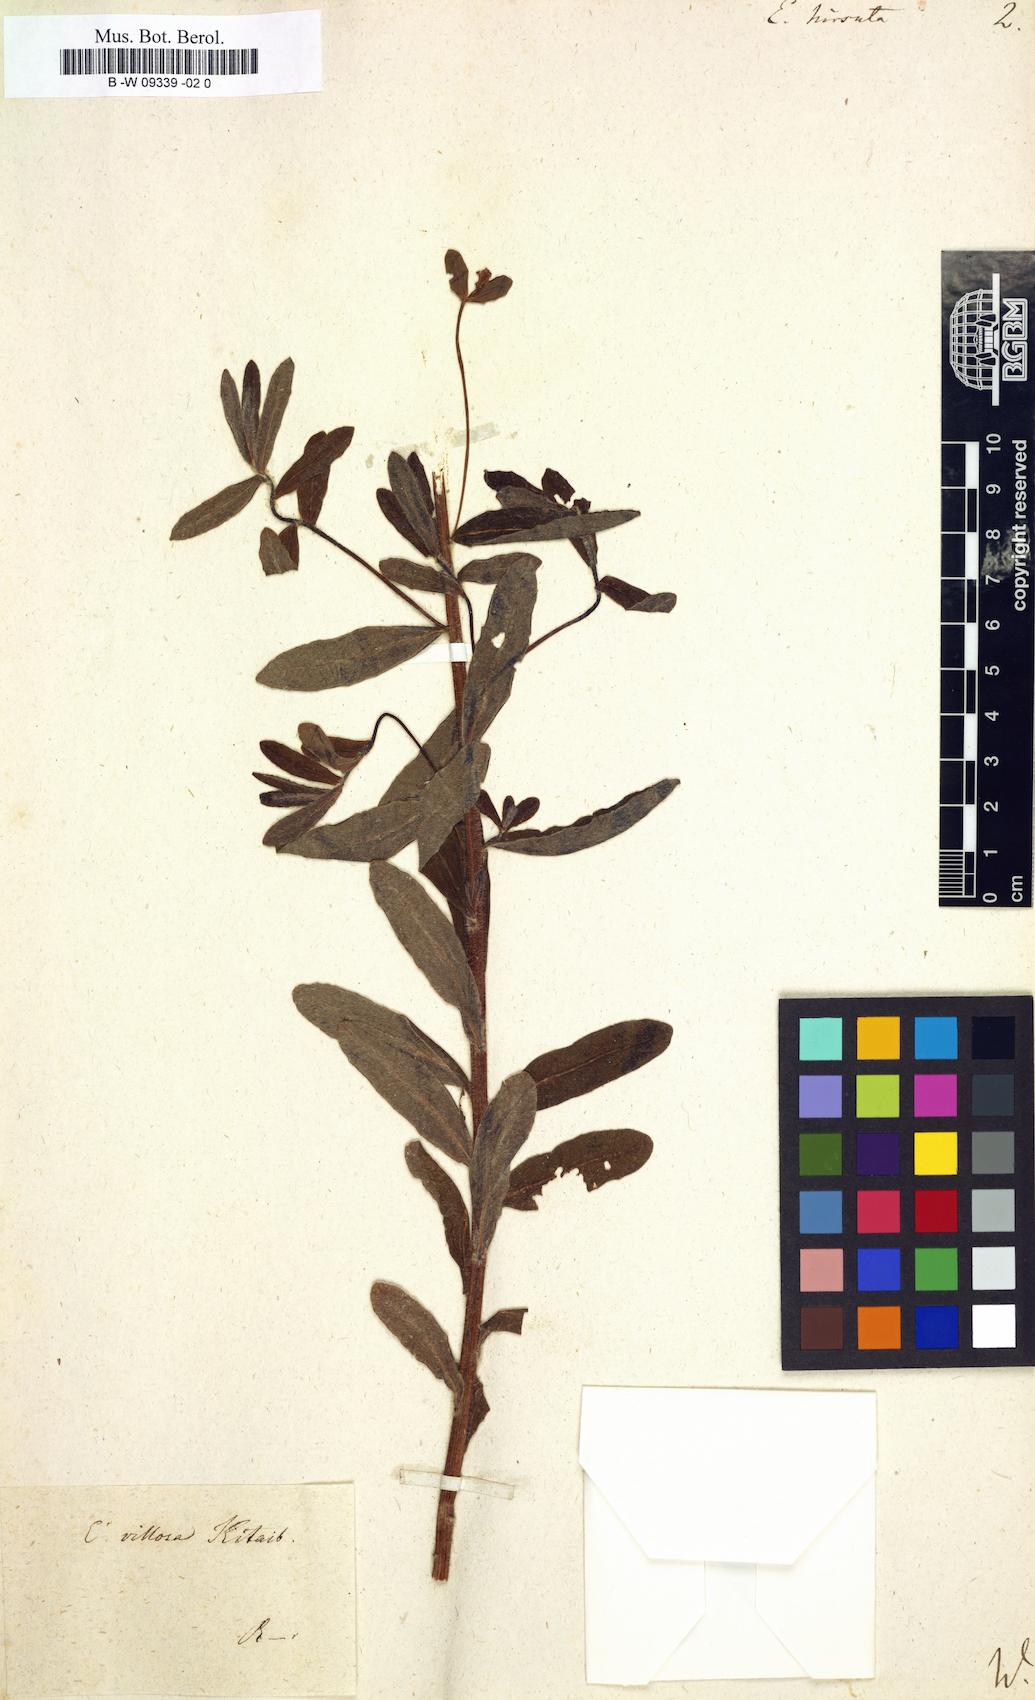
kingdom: Plantae
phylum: Tracheophyta
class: Magnoliopsida
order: Malpighiales
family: Euphorbiaceae
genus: Euphorbia
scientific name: Euphorbia hirsuta
